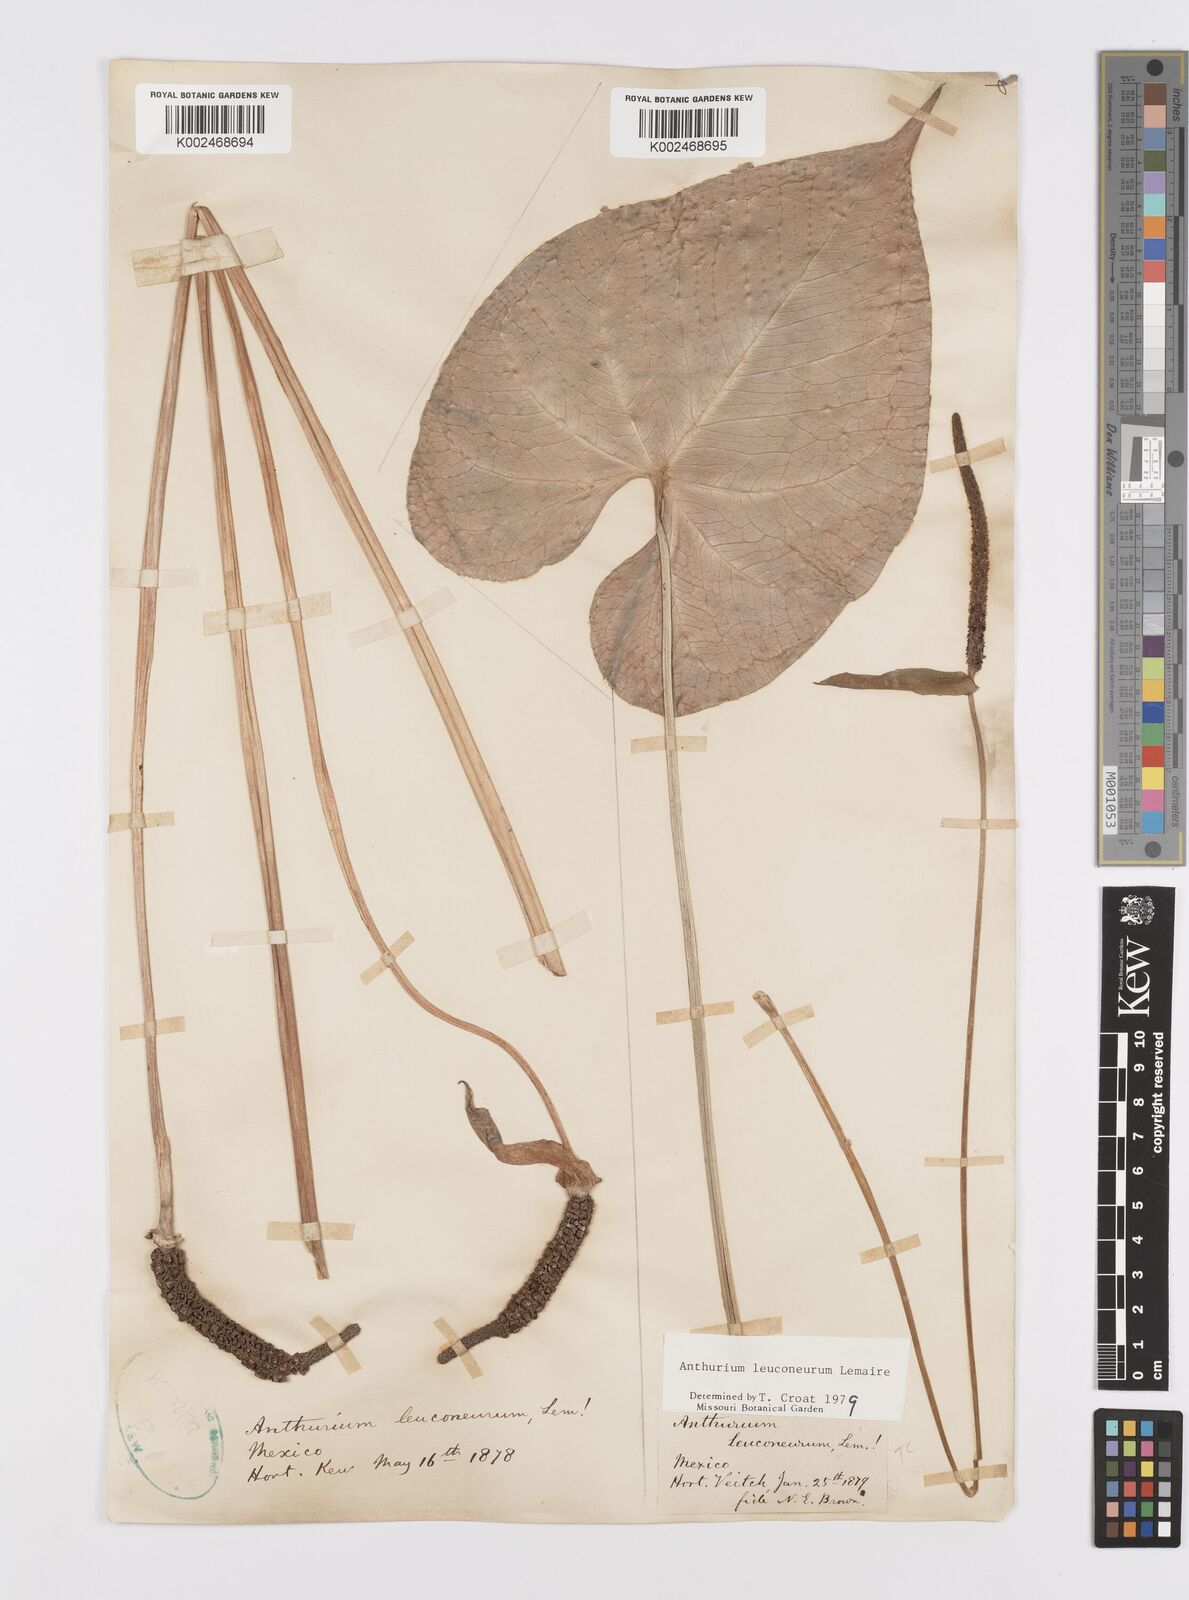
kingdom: Plantae
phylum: Tracheophyta
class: Liliopsida
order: Alismatales
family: Araceae
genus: Anthurium
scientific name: Anthurium leuconeurum
